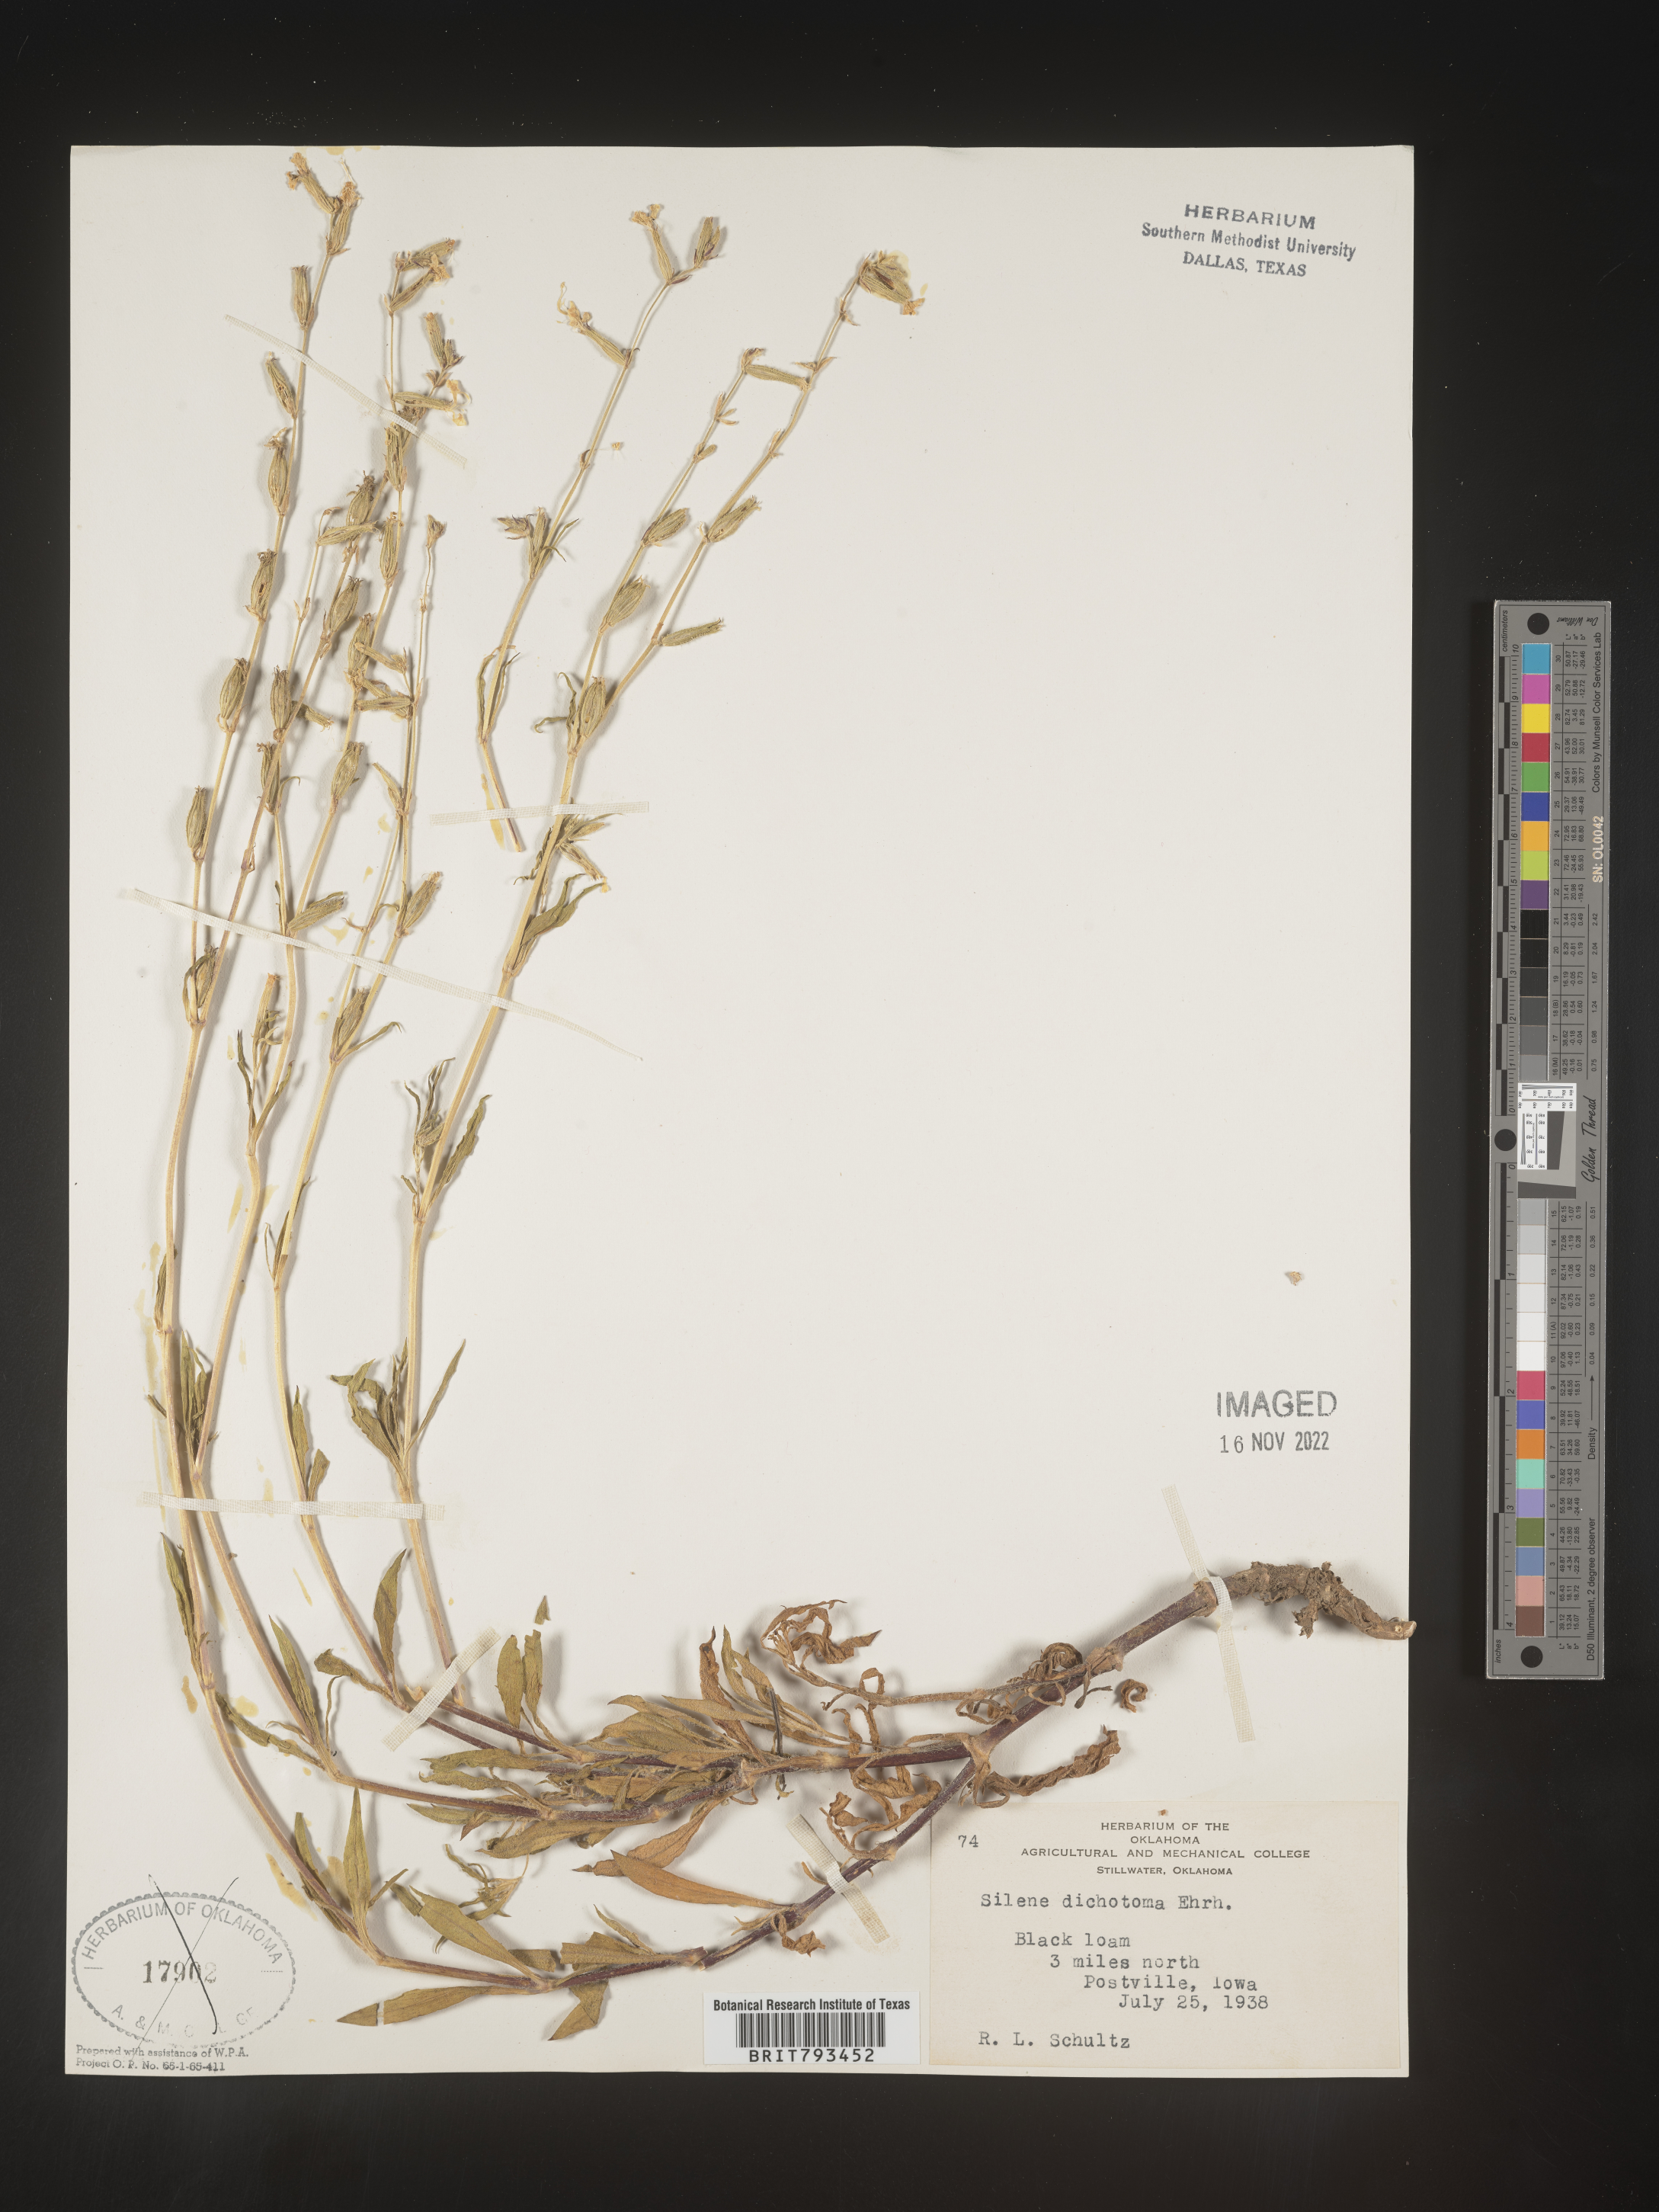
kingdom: Plantae
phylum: Tracheophyta
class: Magnoliopsida
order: Caryophyllales
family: Caryophyllaceae
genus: Silene
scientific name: Silene dichotoma
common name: Forked catchfly
